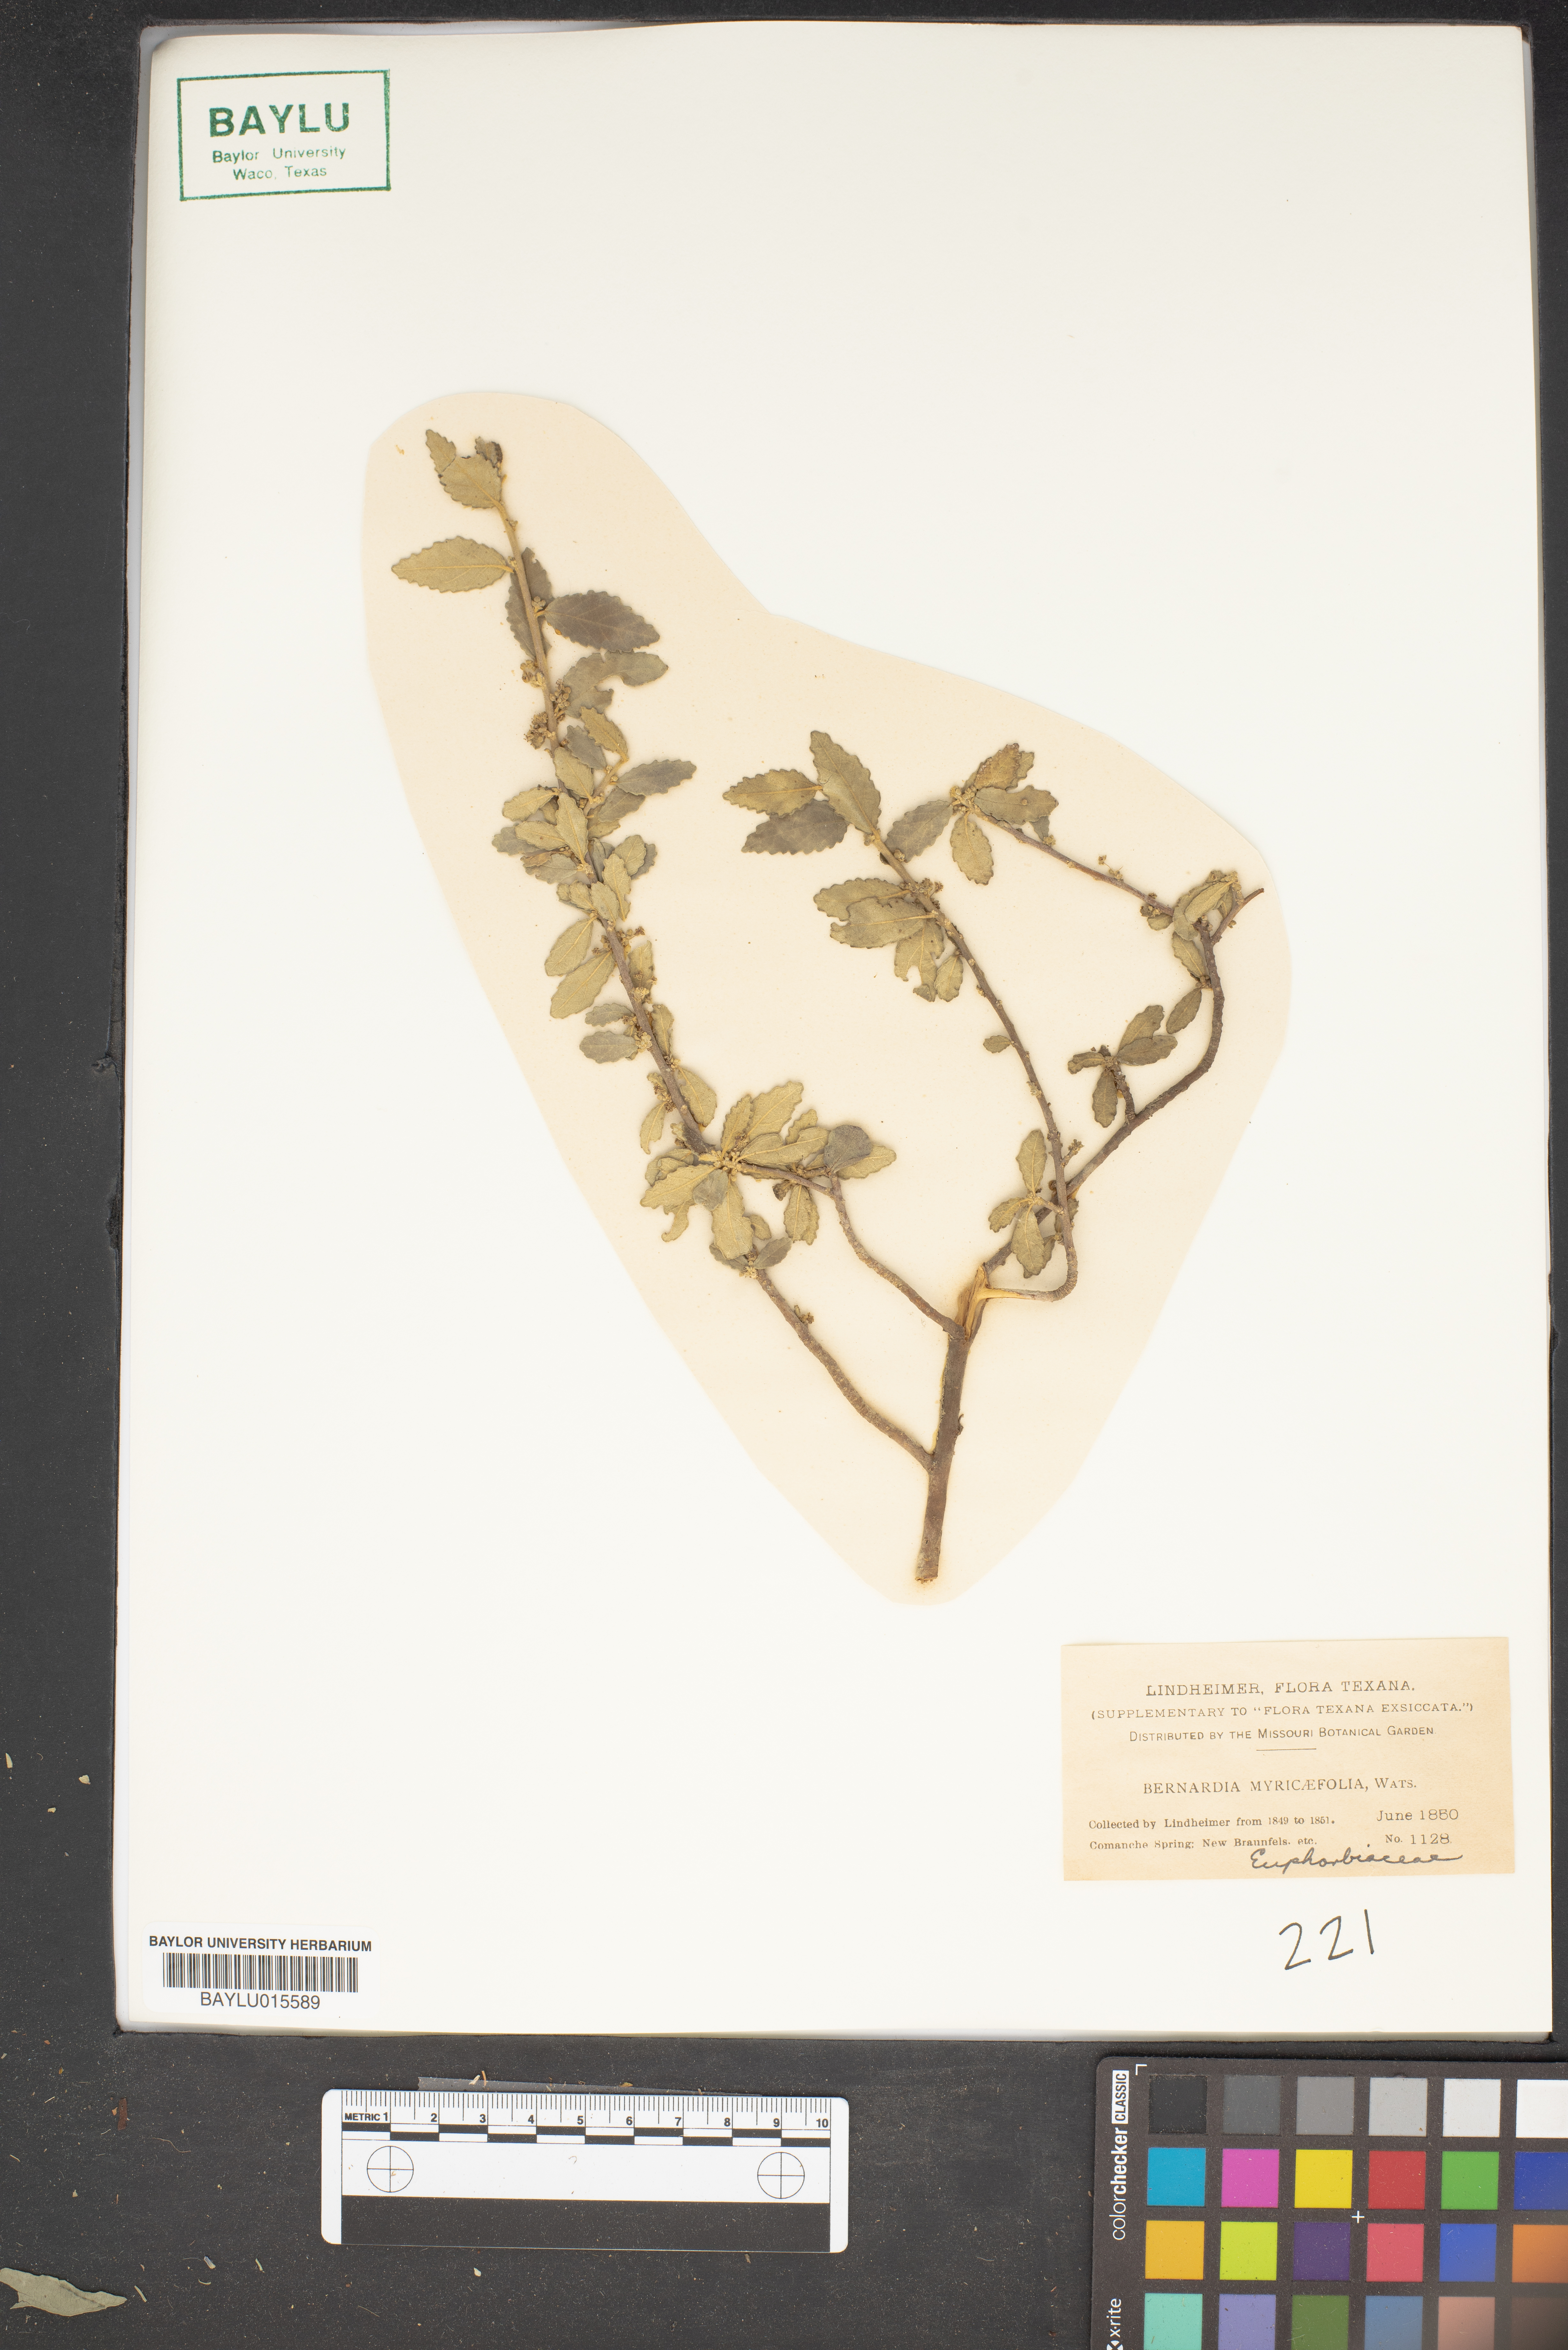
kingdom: Plantae
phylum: Tracheophyta
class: Magnoliopsida
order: Malpighiales
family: Euphorbiaceae
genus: Bernardia
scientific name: Bernardia myricifolia
